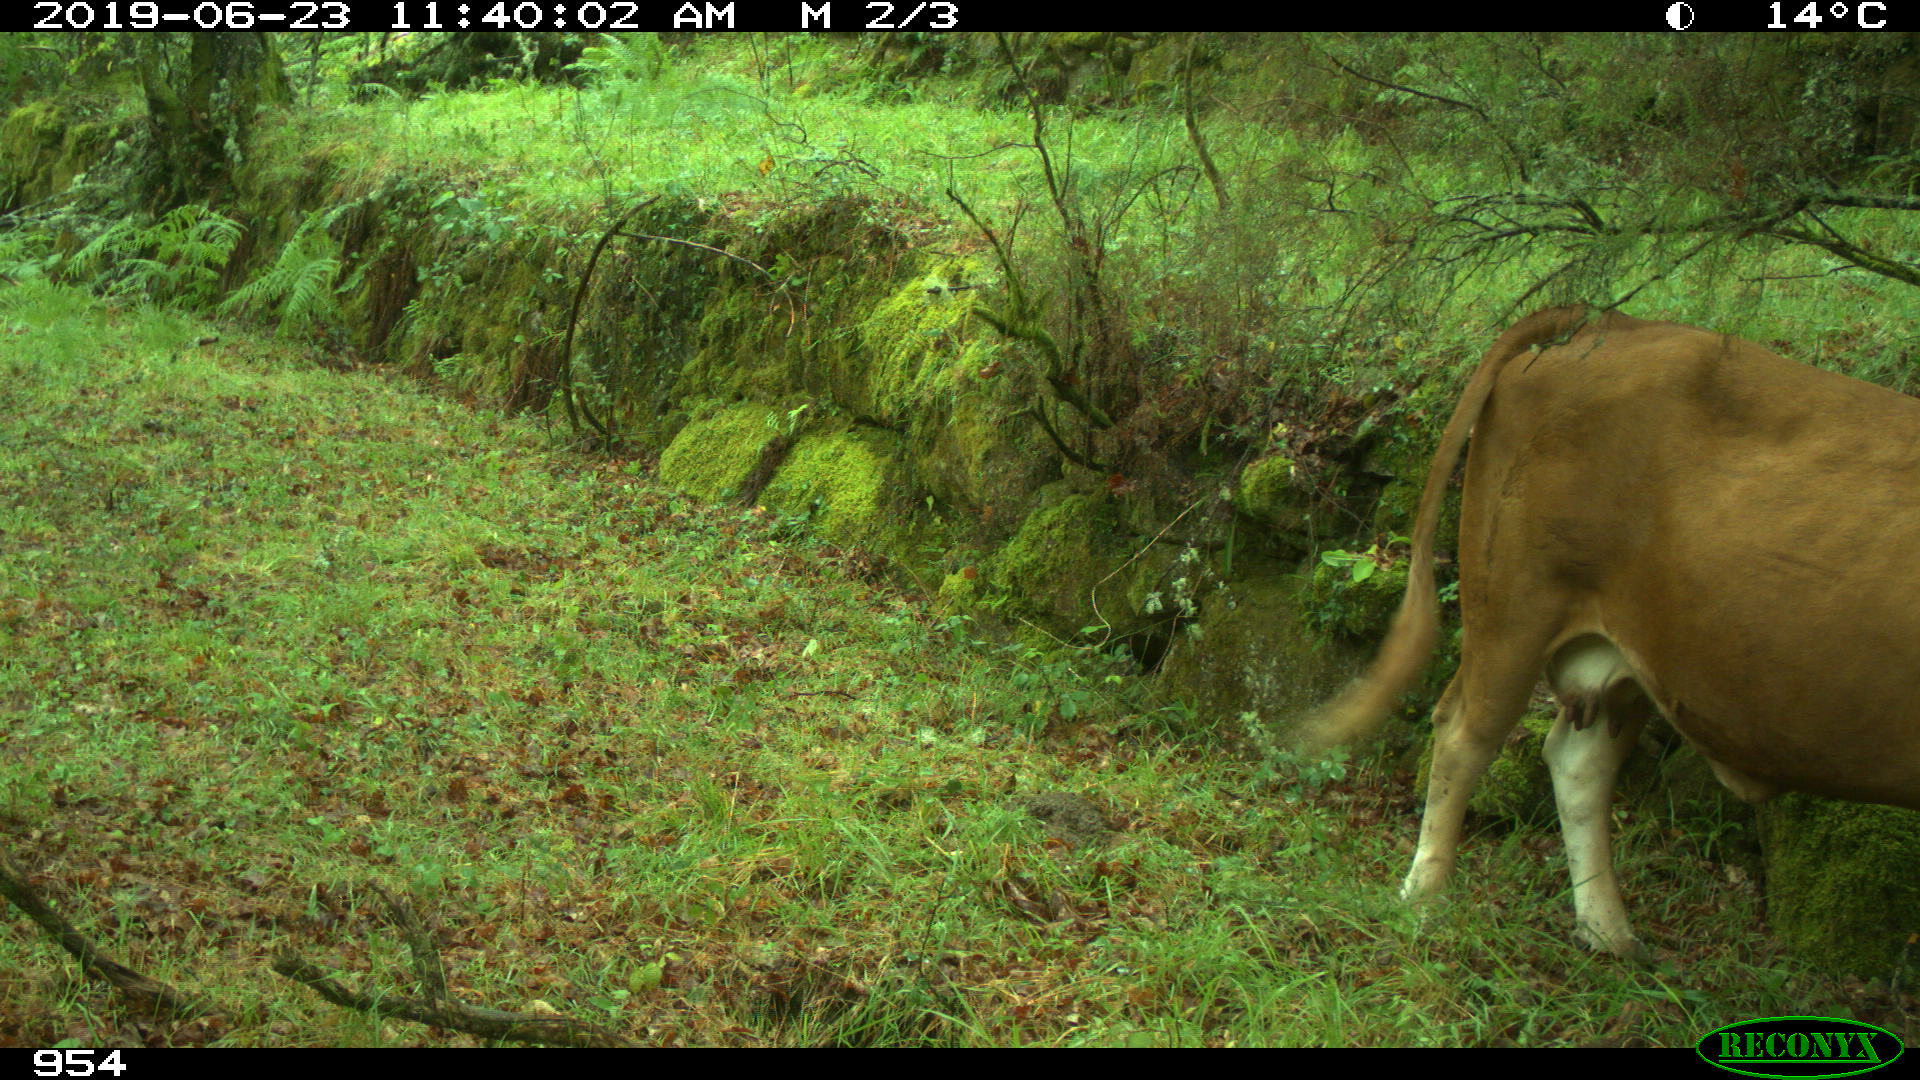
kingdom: Animalia
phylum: Chordata
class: Mammalia
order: Artiodactyla
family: Bovidae
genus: Bos
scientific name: Bos taurus
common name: Domesticated cattle
